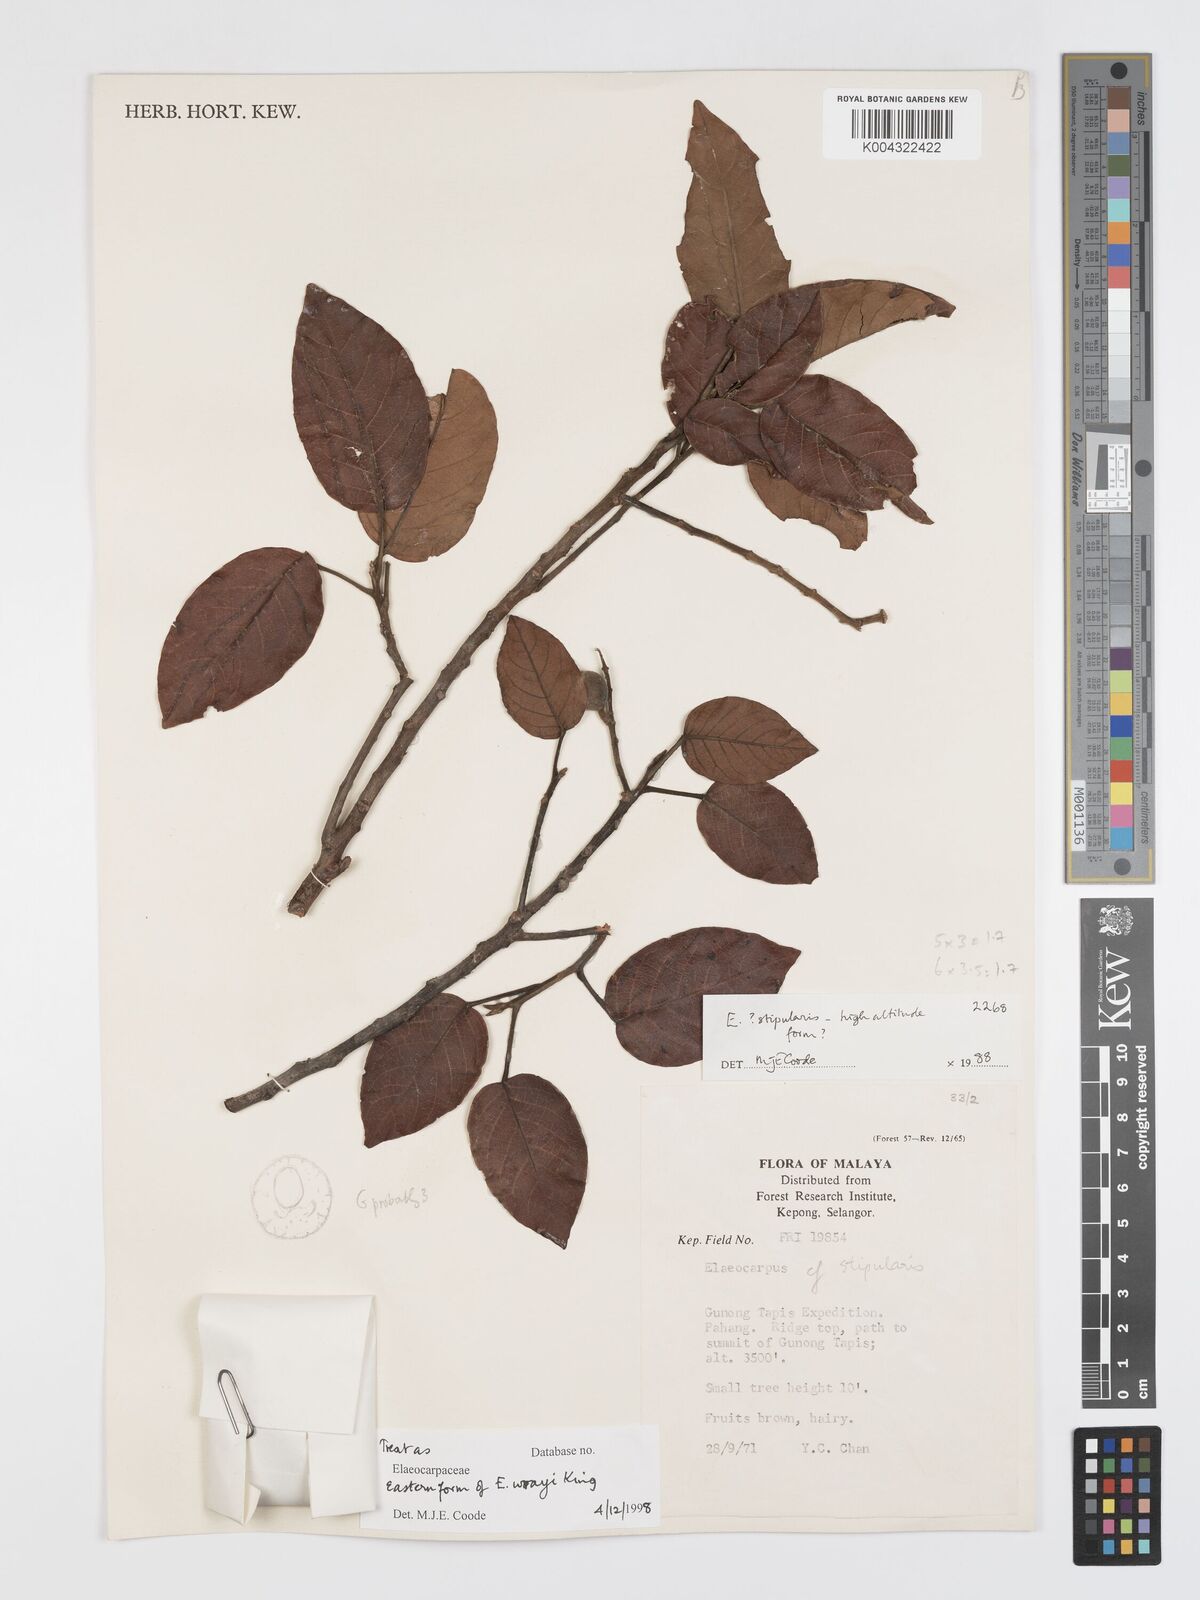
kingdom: Plantae
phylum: Tracheophyta
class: Magnoliopsida
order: Oxalidales
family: Elaeocarpaceae
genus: Elaeocarpus
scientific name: Elaeocarpus nitidus
